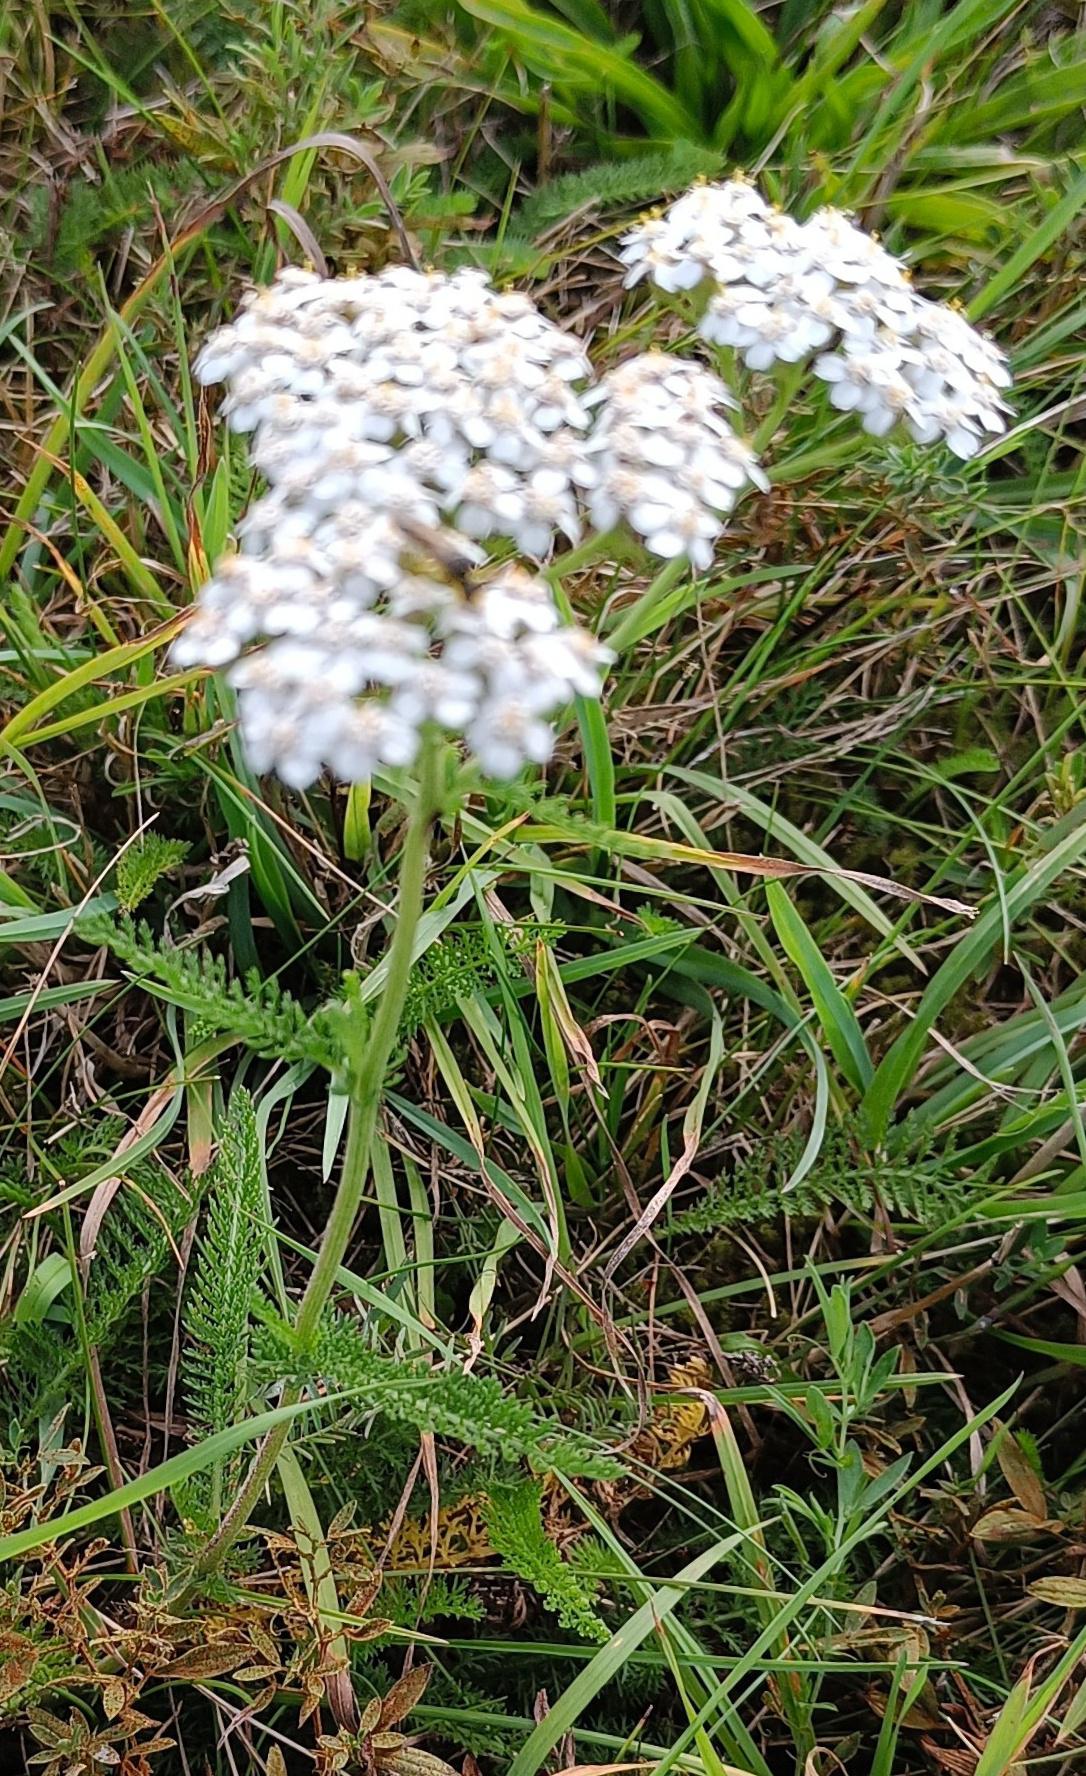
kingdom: Plantae
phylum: Tracheophyta
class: Magnoliopsida
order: Asterales
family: Asteraceae
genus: Achillea
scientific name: Achillea millefolium
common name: Almindelig røllike
